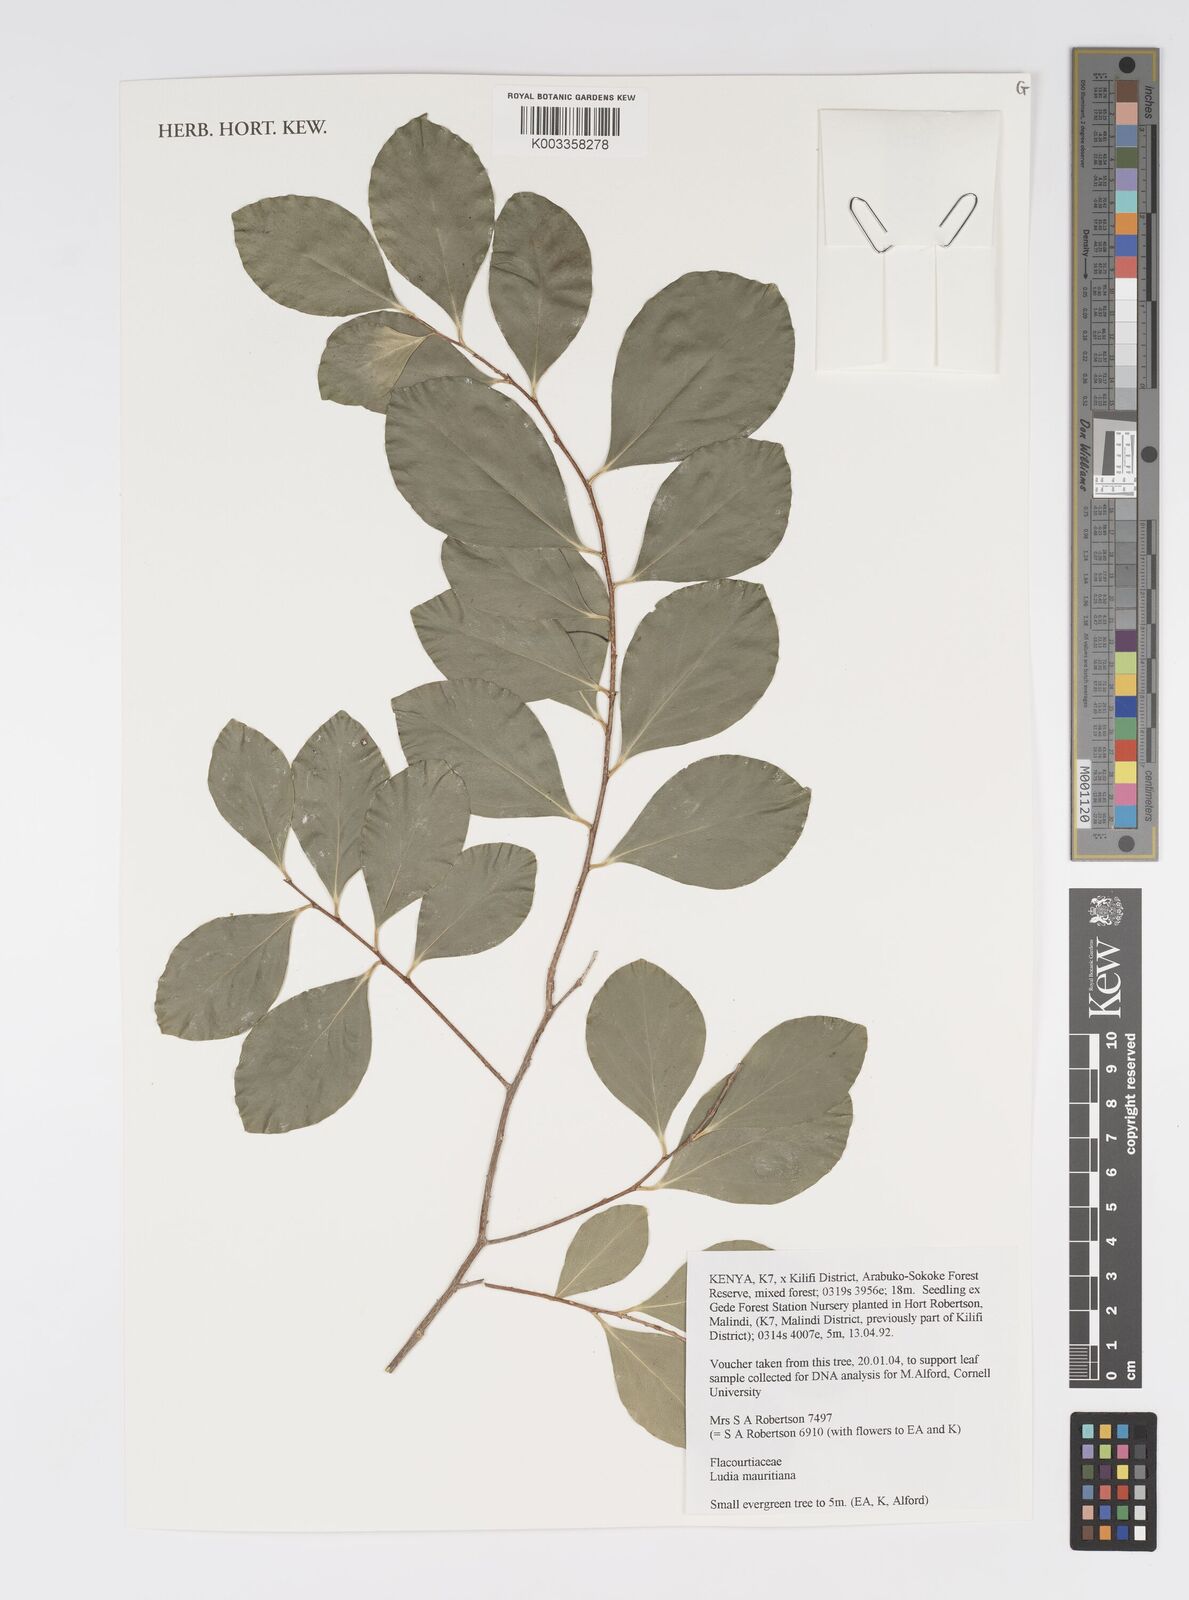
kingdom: Plantae
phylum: Tracheophyta
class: Magnoliopsida
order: Malpighiales
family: Salicaceae
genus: Ludia
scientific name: Ludia mauritiana
